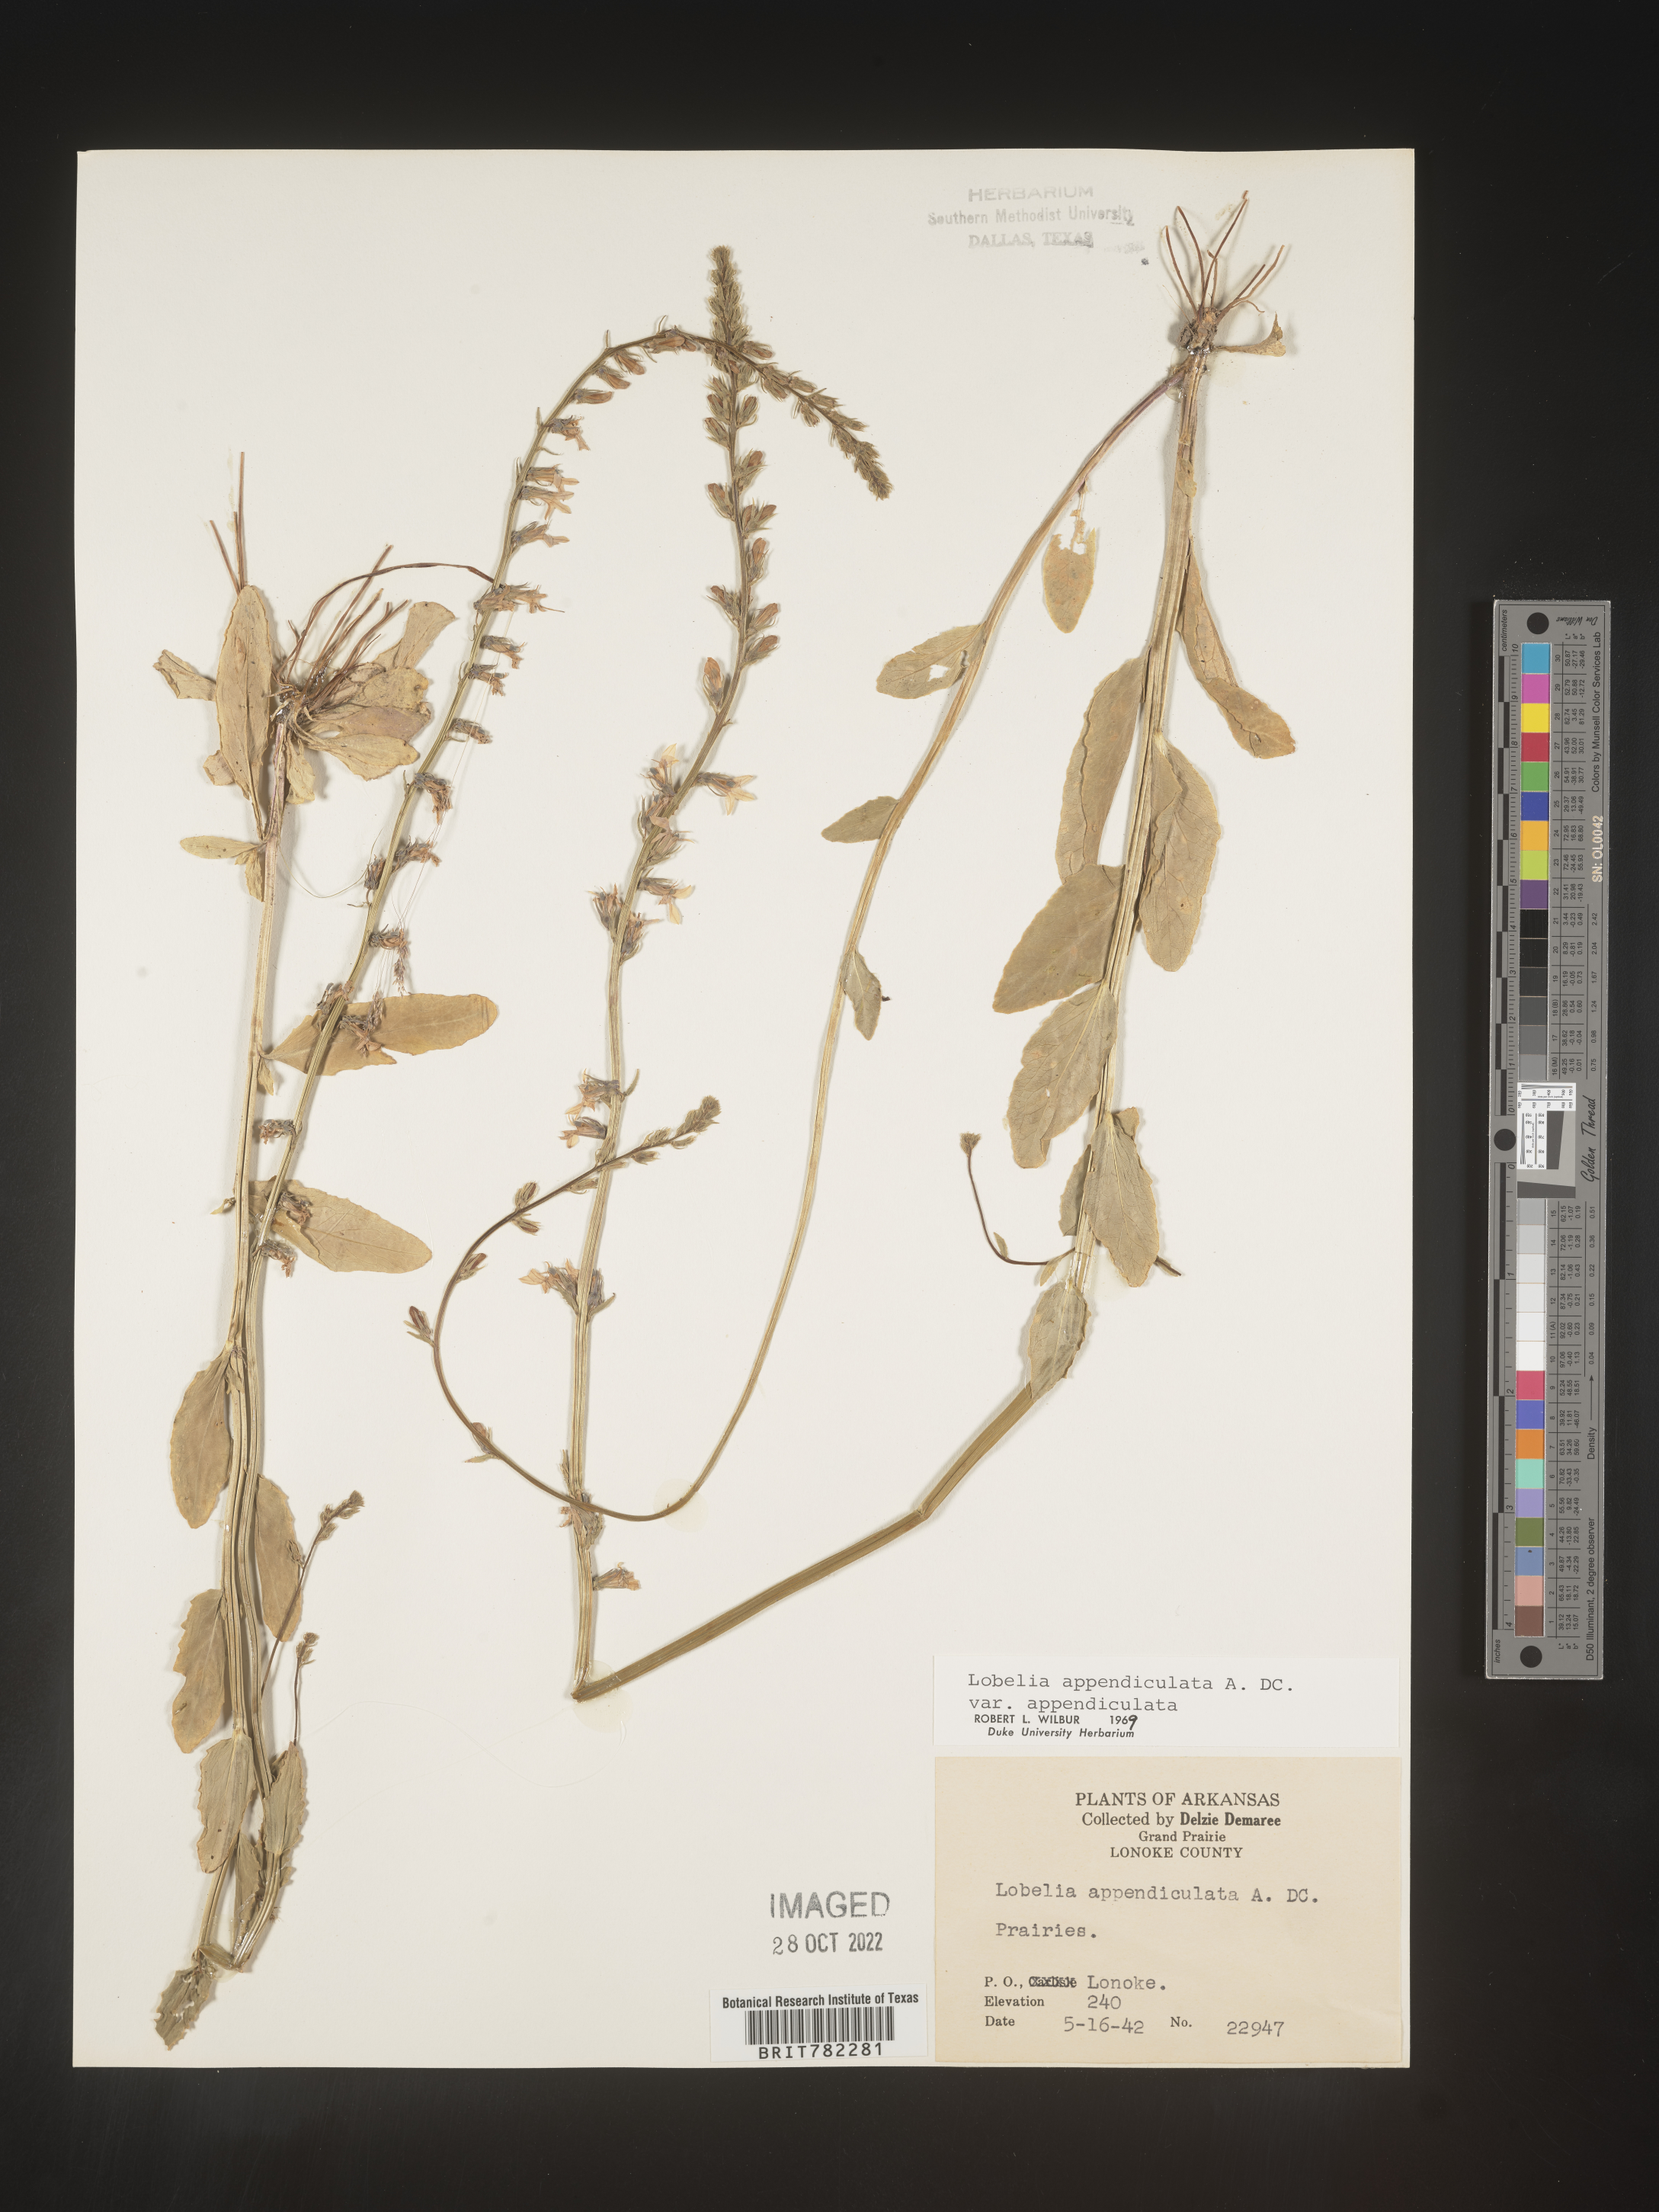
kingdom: Plantae
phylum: Tracheophyta
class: Magnoliopsida
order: Asterales
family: Campanulaceae
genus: Lobelia
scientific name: Lobelia appendiculata
